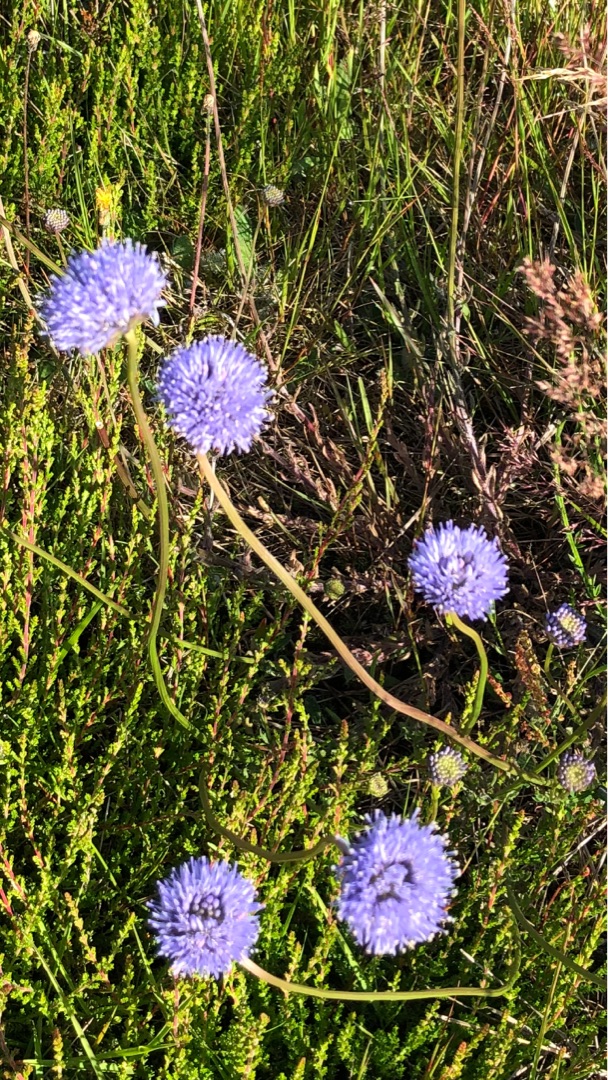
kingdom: Plantae
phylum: Tracheophyta
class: Magnoliopsida
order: Asterales
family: Campanulaceae
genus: Jasione
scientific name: Jasione montana
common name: Blåmunke
